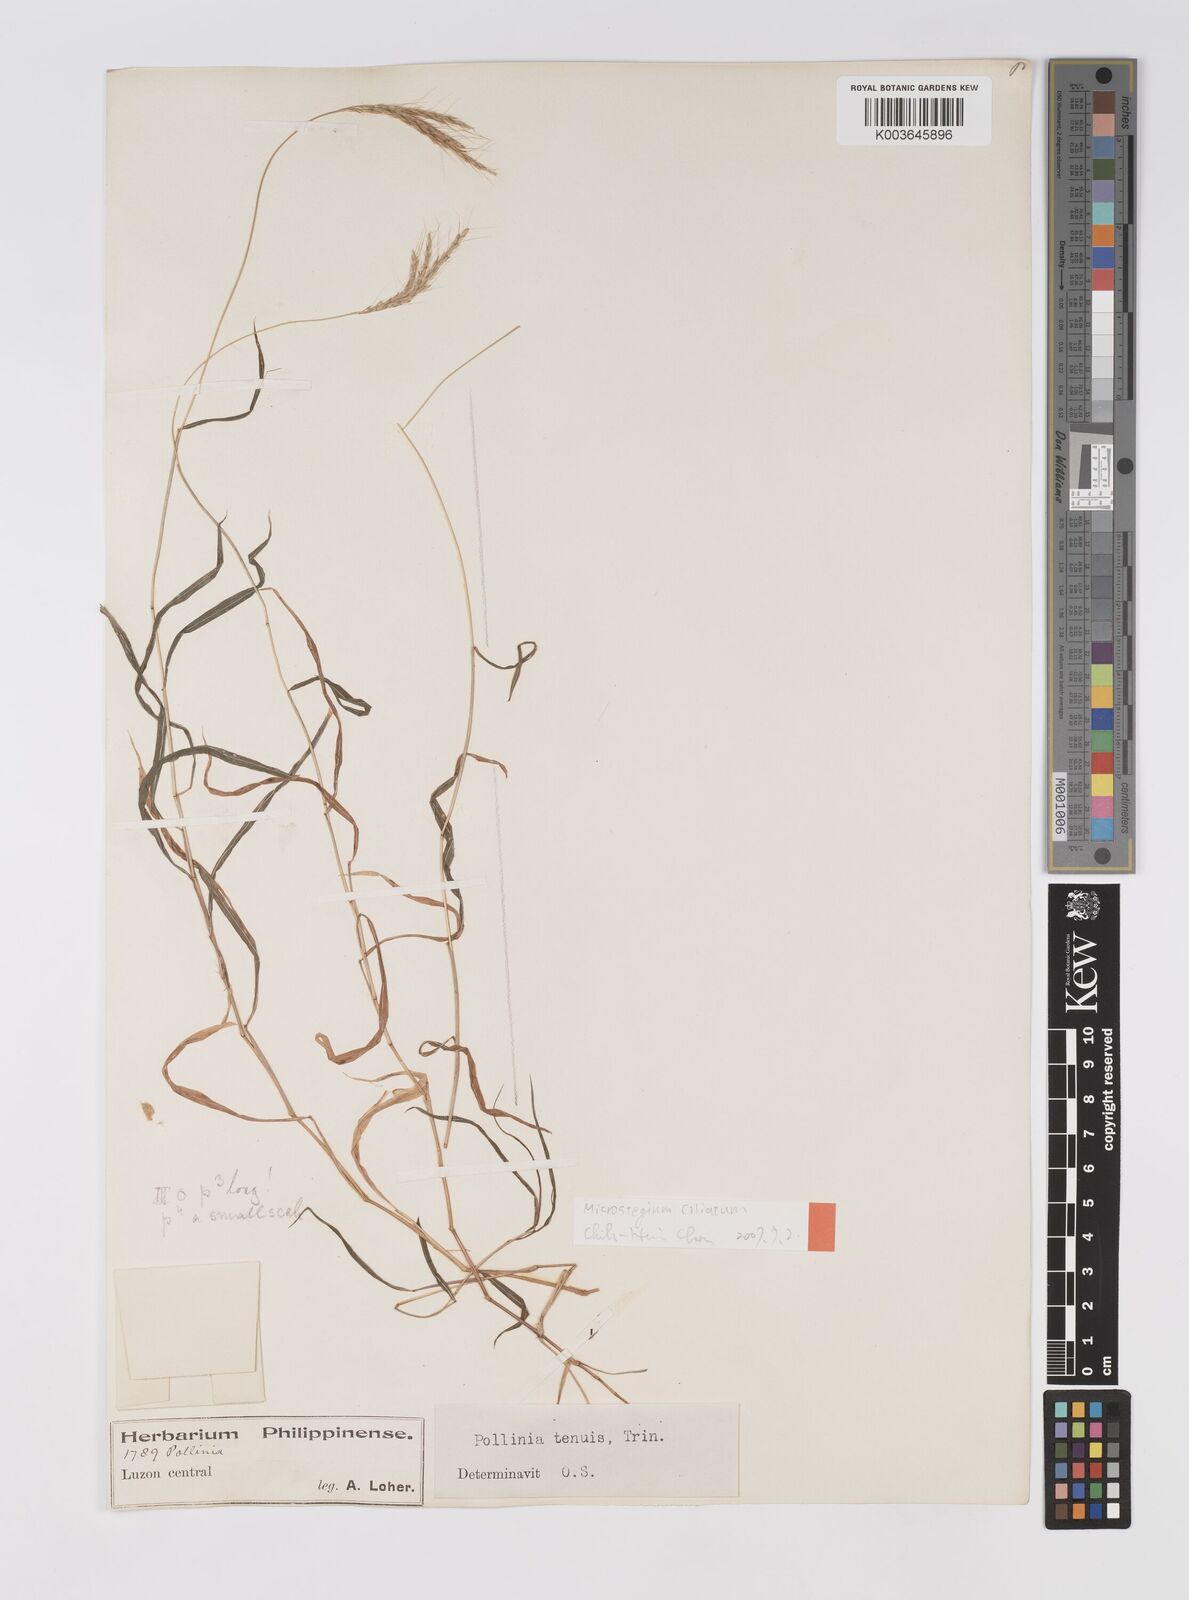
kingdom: Plantae
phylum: Tracheophyta
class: Liliopsida
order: Poales
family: Poaceae
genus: Microstegium
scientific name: Microstegium
